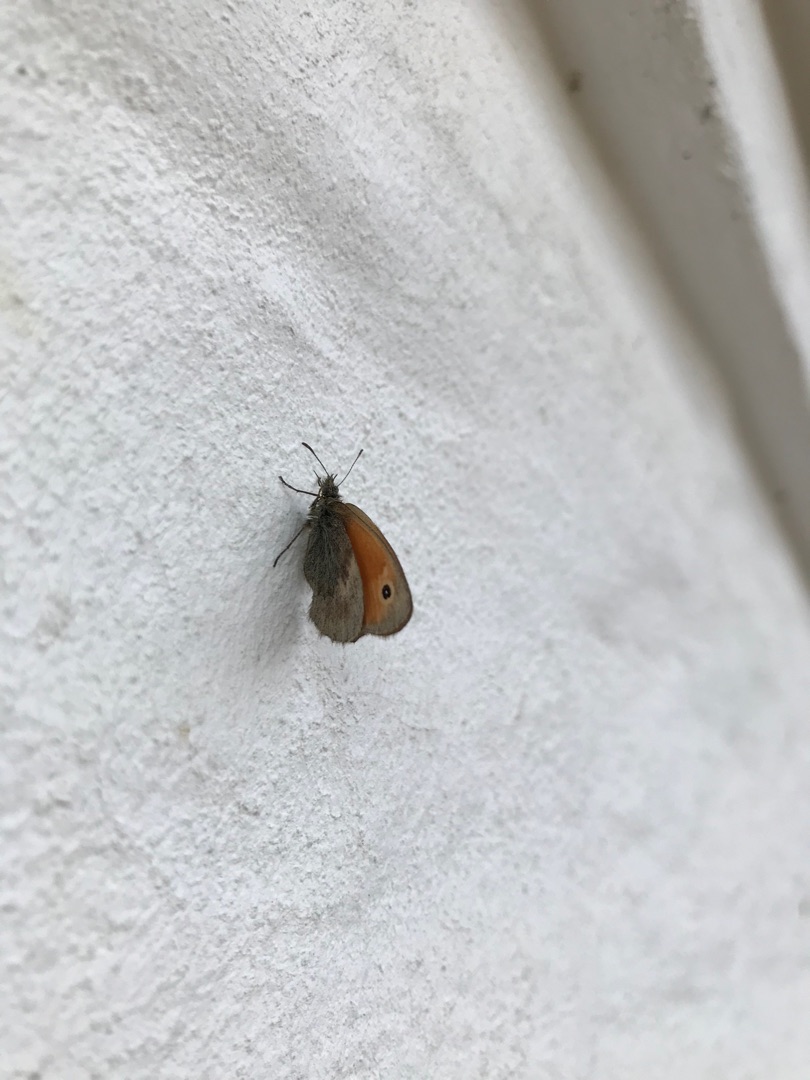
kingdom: Animalia
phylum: Arthropoda
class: Insecta
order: Lepidoptera
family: Nymphalidae
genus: Coenonympha
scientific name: Coenonympha pamphilus
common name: Okkergul randøje
